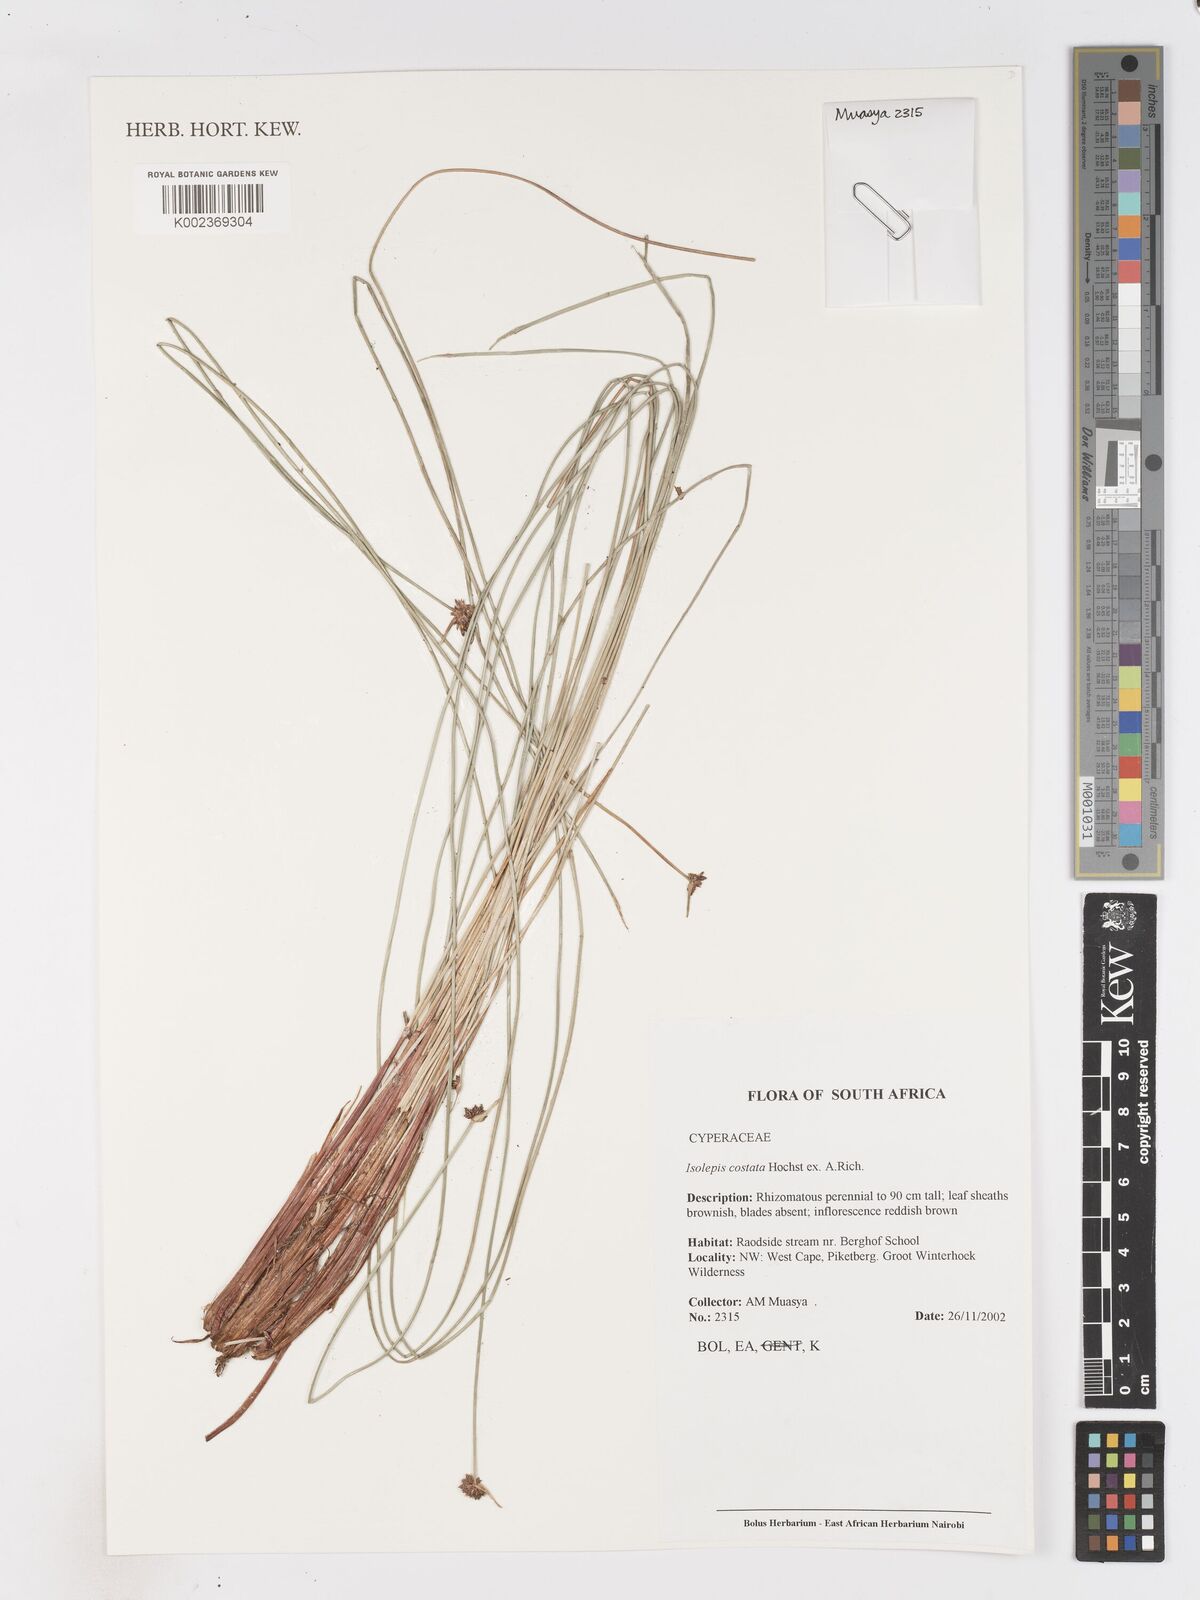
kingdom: Plantae
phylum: Tracheophyta
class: Liliopsida
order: Poales
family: Cyperaceae
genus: Isolepis
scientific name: Isolepis costata
